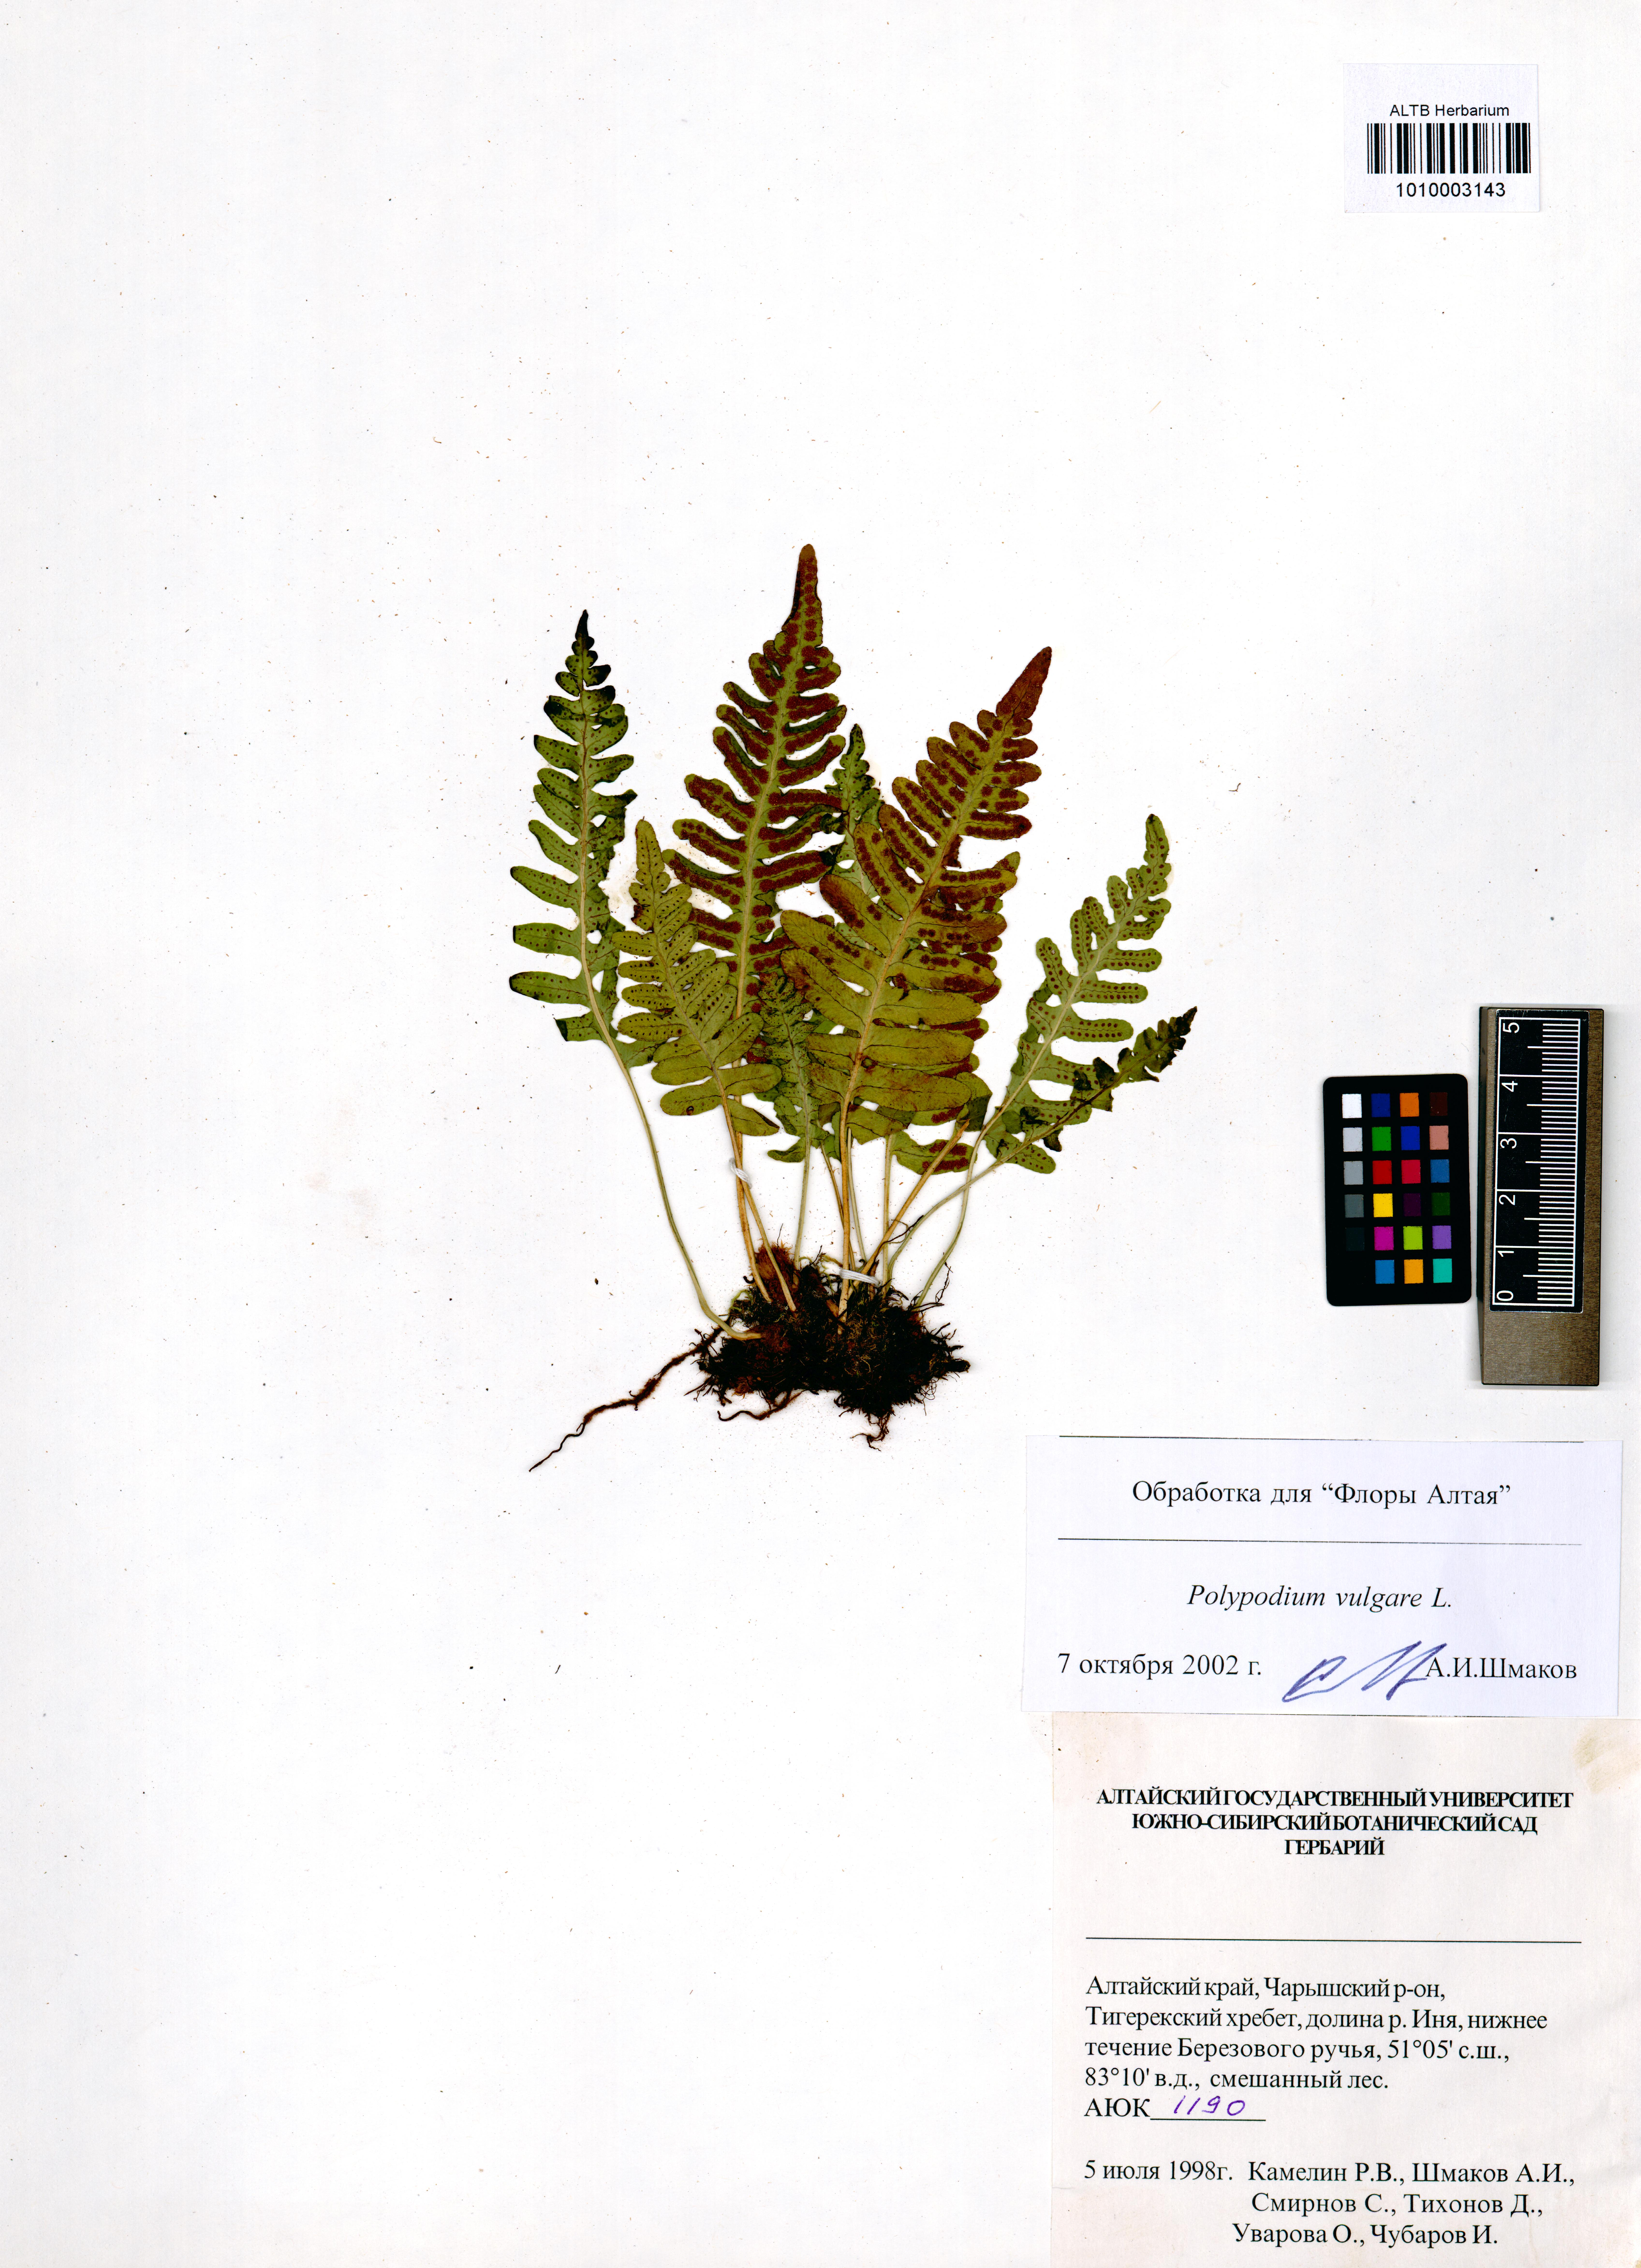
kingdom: Plantae
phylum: Tracheophyta
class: Polypodiopsida
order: Polypodiales
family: Polypodiaceae
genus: Polypodium
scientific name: Polypodium vulgare
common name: Common polypody
